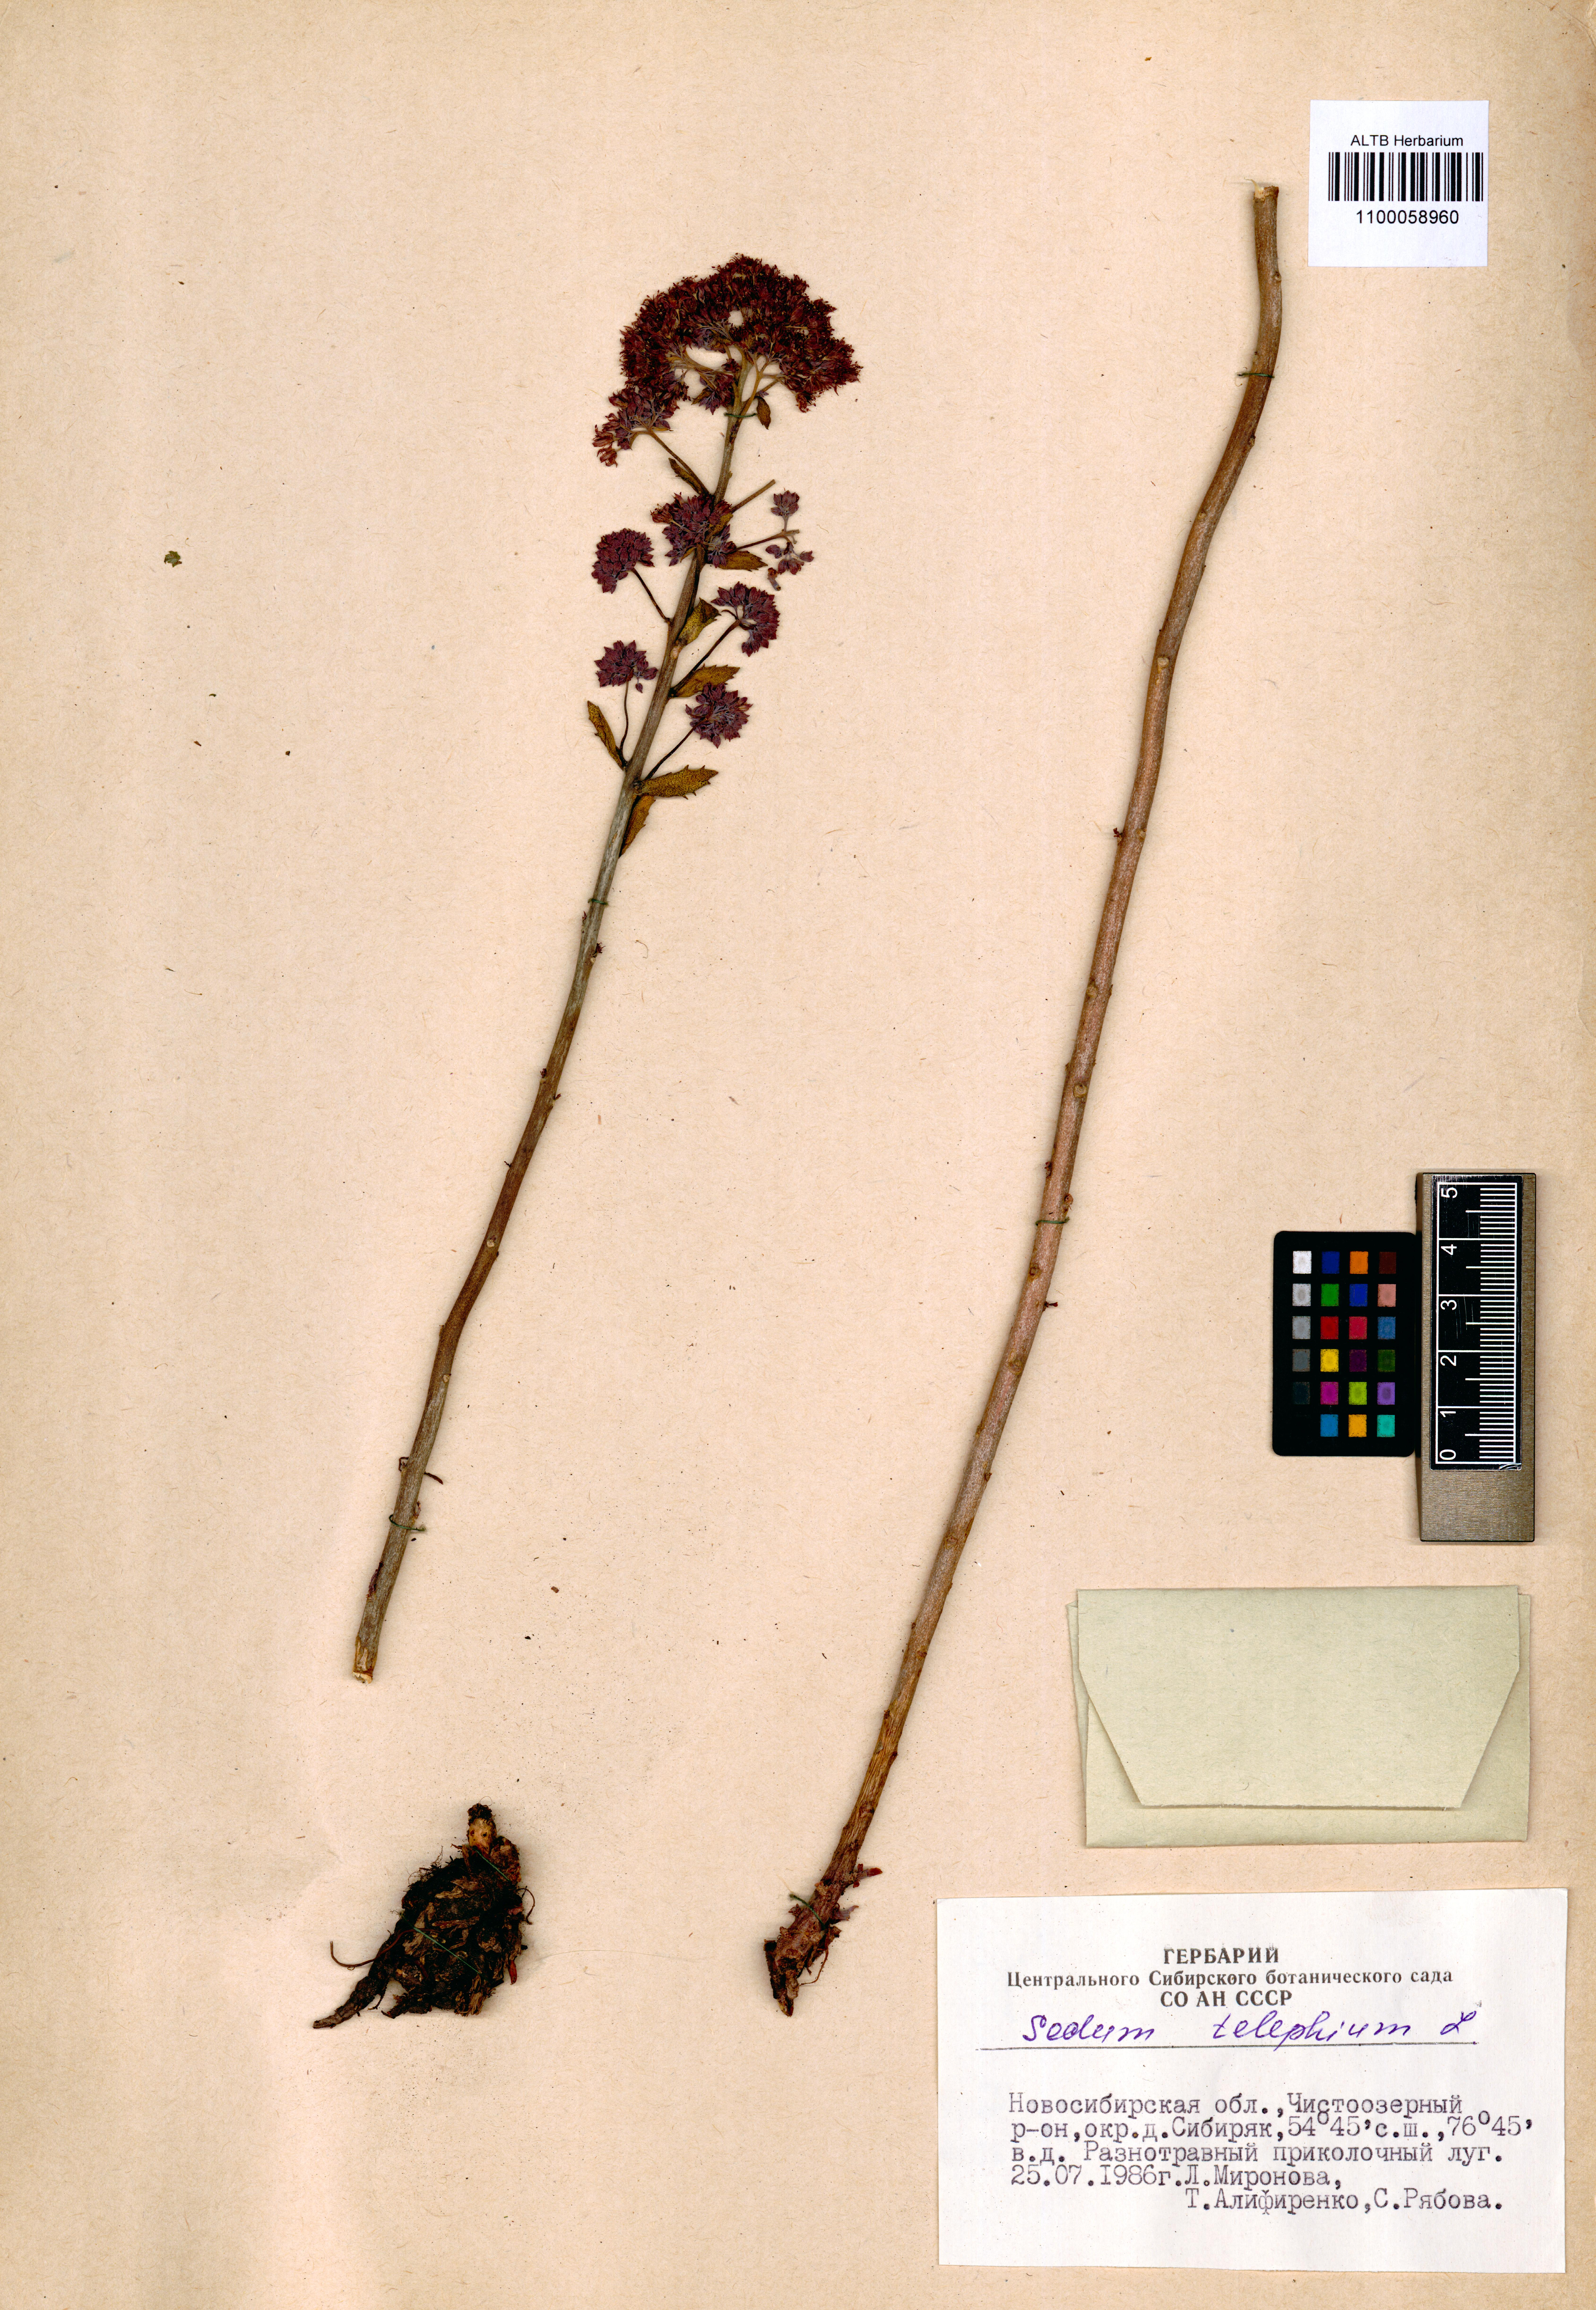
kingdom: Plantae
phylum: Tracheophyta
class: Magnoliopsida
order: Saxifragales
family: Crassulaceae
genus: Hylotelephium
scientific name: Hylotelephium telephium
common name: Live-forever
